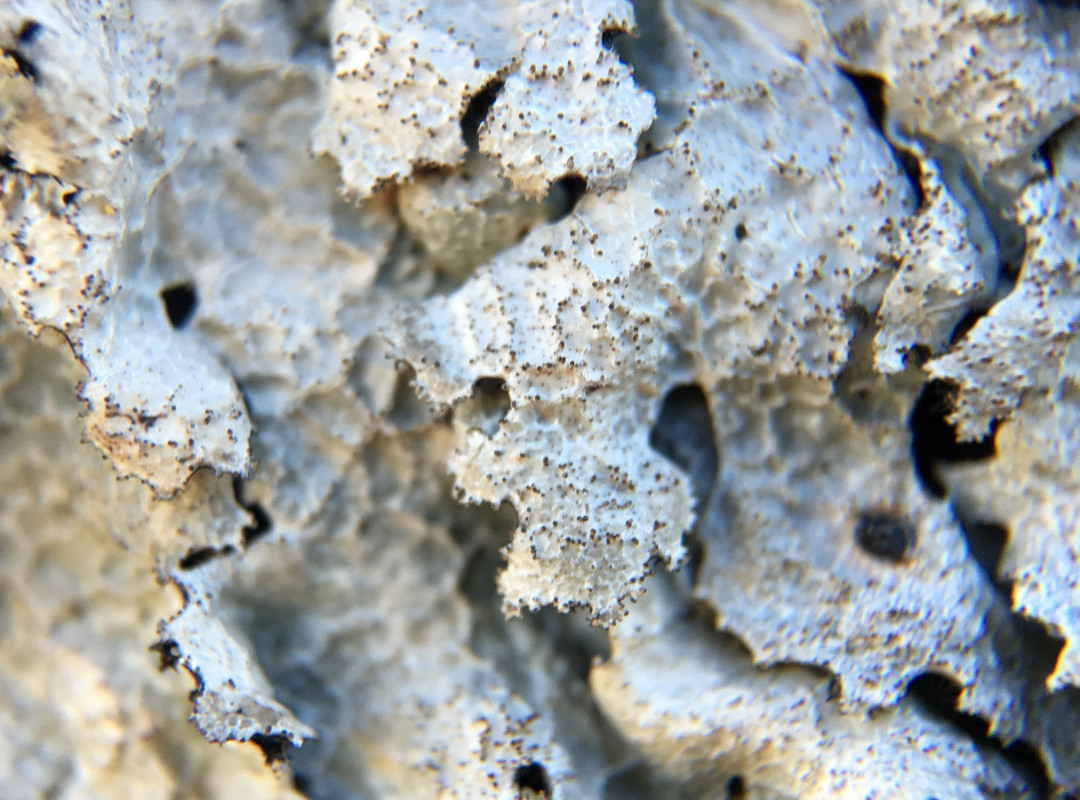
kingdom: Fungi
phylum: Ascomycota
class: Lecanoromycetes
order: Lecanorales
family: Parmeliaceae
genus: Parmelia
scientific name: Parmelia saxatilis
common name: farve-skållav
